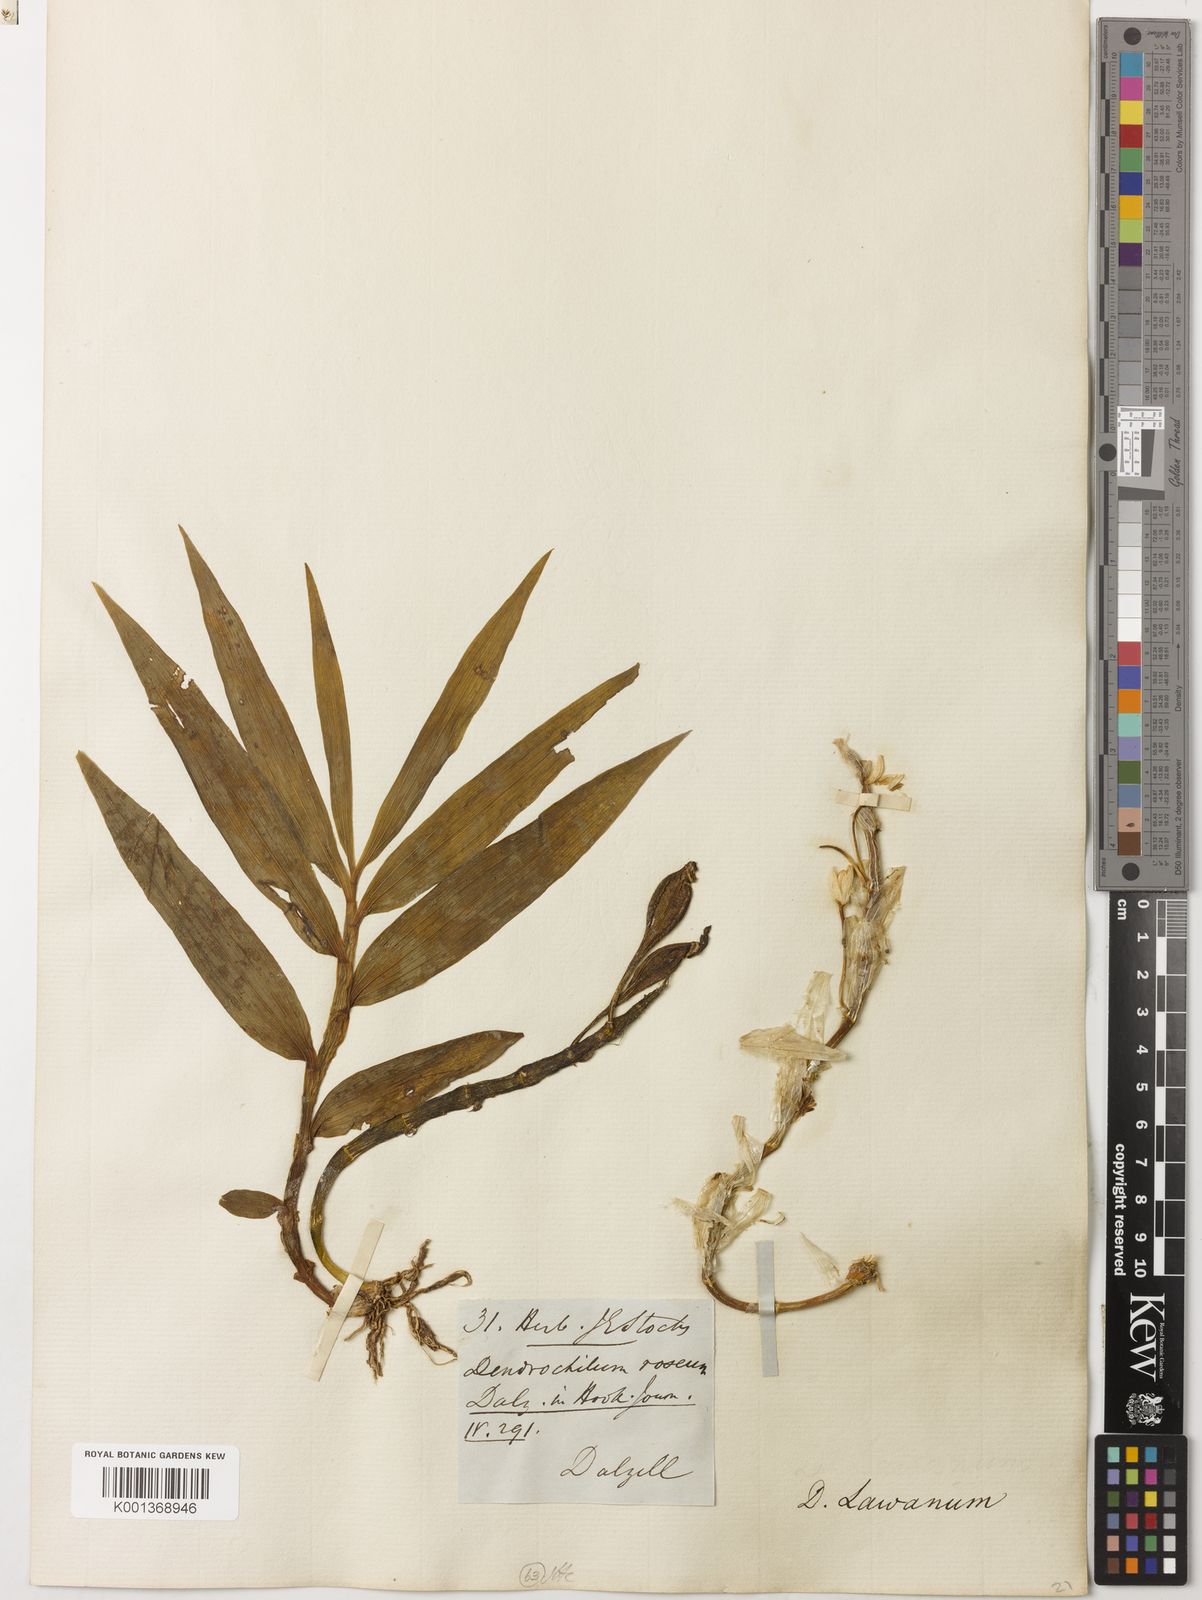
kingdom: Plantae
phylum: Tracheophyta
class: Liliopsida
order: Asparagales
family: Orchidaceae
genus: Dendrobium
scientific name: Dendrobium
